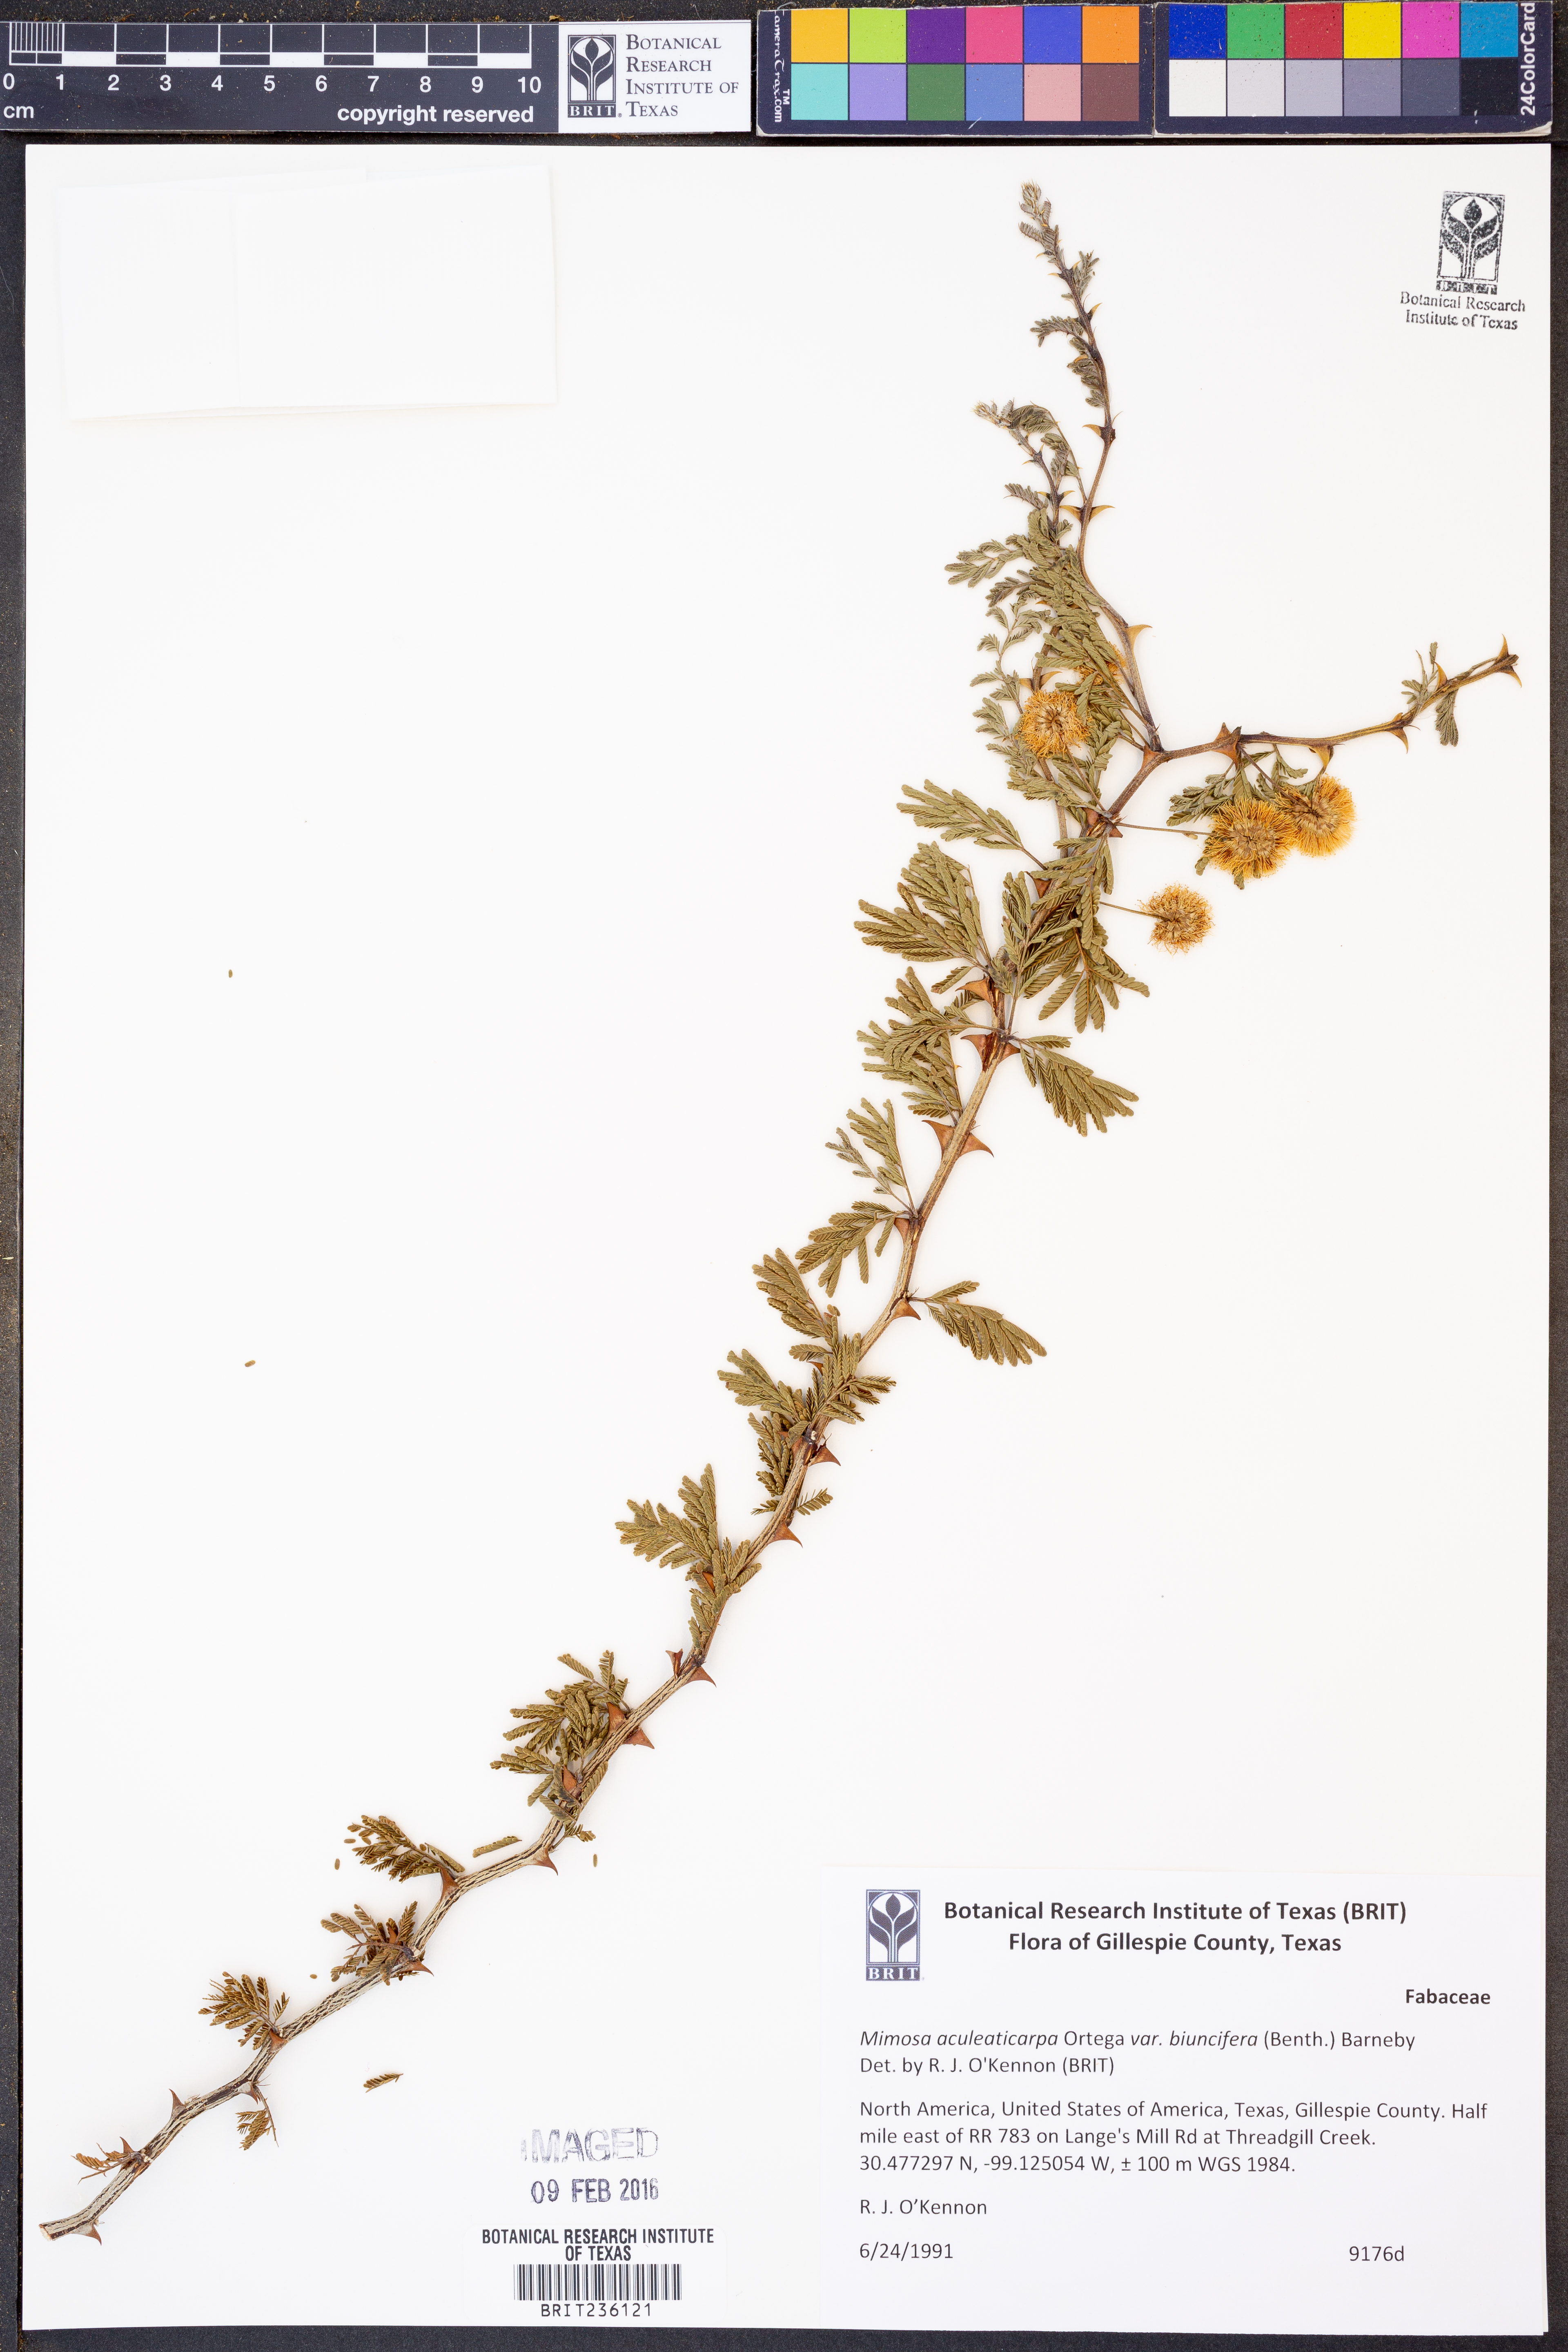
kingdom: Plantae
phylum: Tracheophyta
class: Magnoliopsida
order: Fabales
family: Fabaceae
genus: Mimosa
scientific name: Mimosa biuncifera
